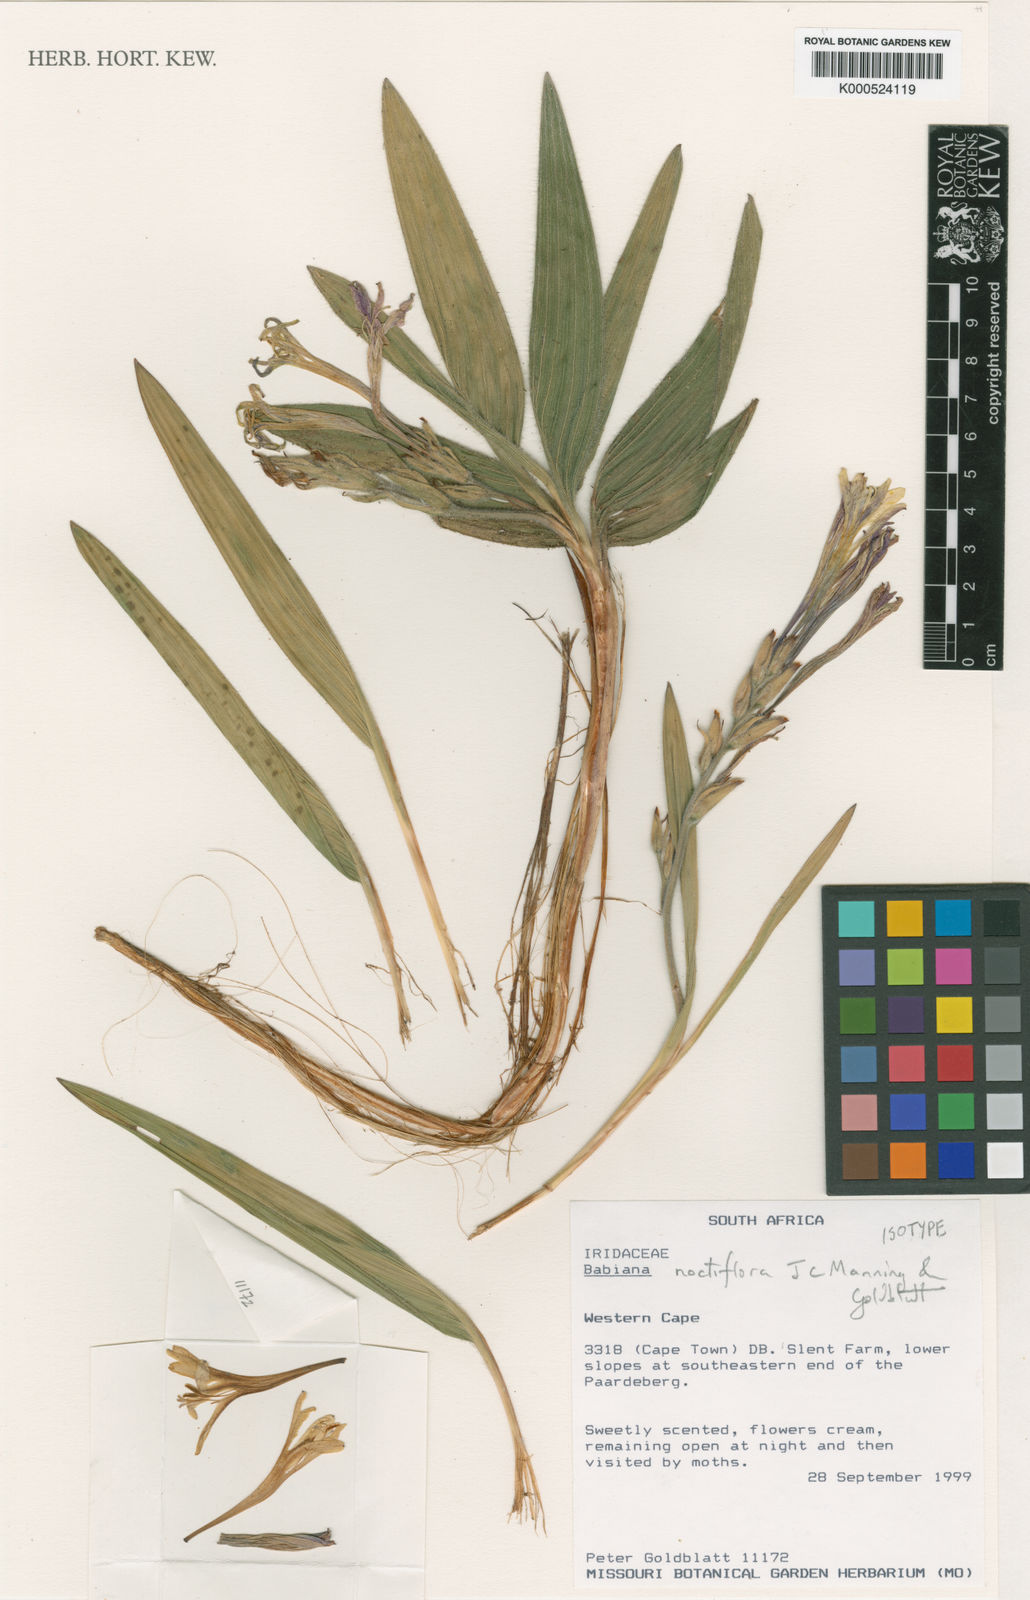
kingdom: Plantae
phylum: Tracheophyta
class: Liliopsida
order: Asparagales
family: Iridaceae
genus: Babiana
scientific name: Babiana noctiflora
